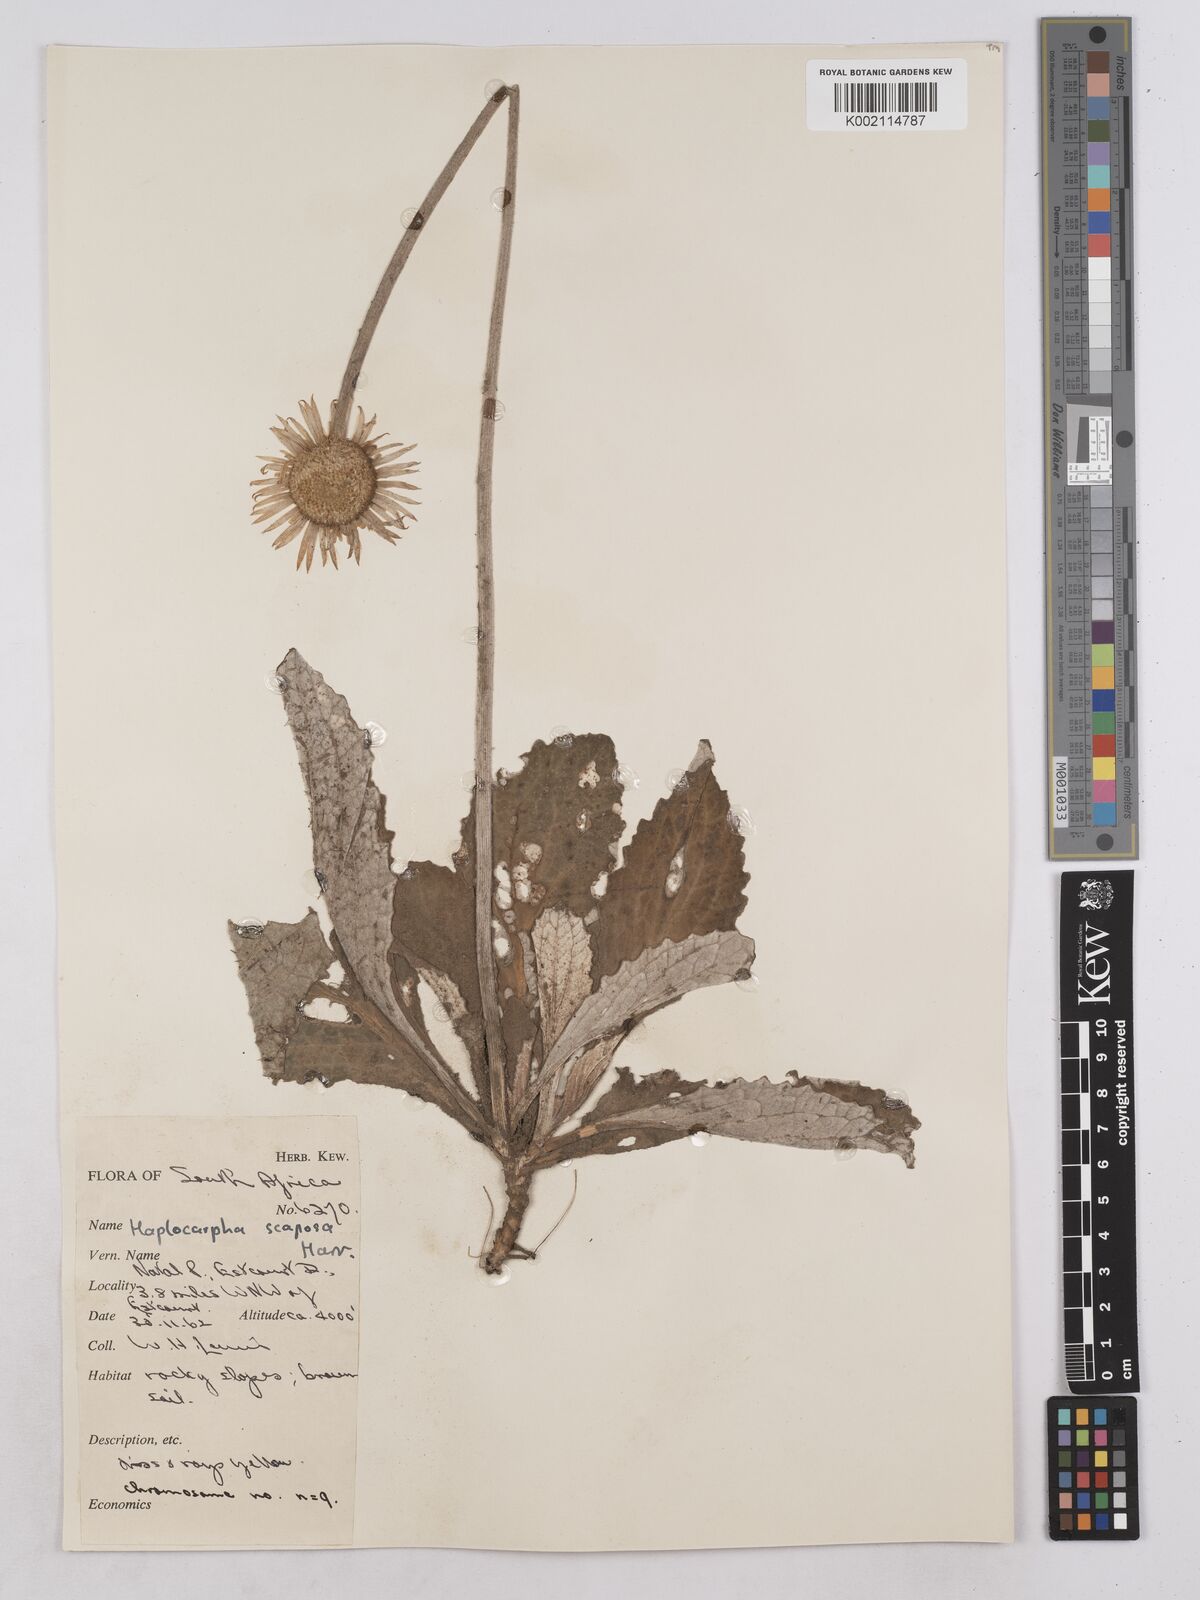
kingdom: Plantae
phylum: Tracheophyta
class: Magnoliopsida
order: Asterales
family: Asteraceae
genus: Haplocarpha
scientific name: Haplocarpha scaposa
